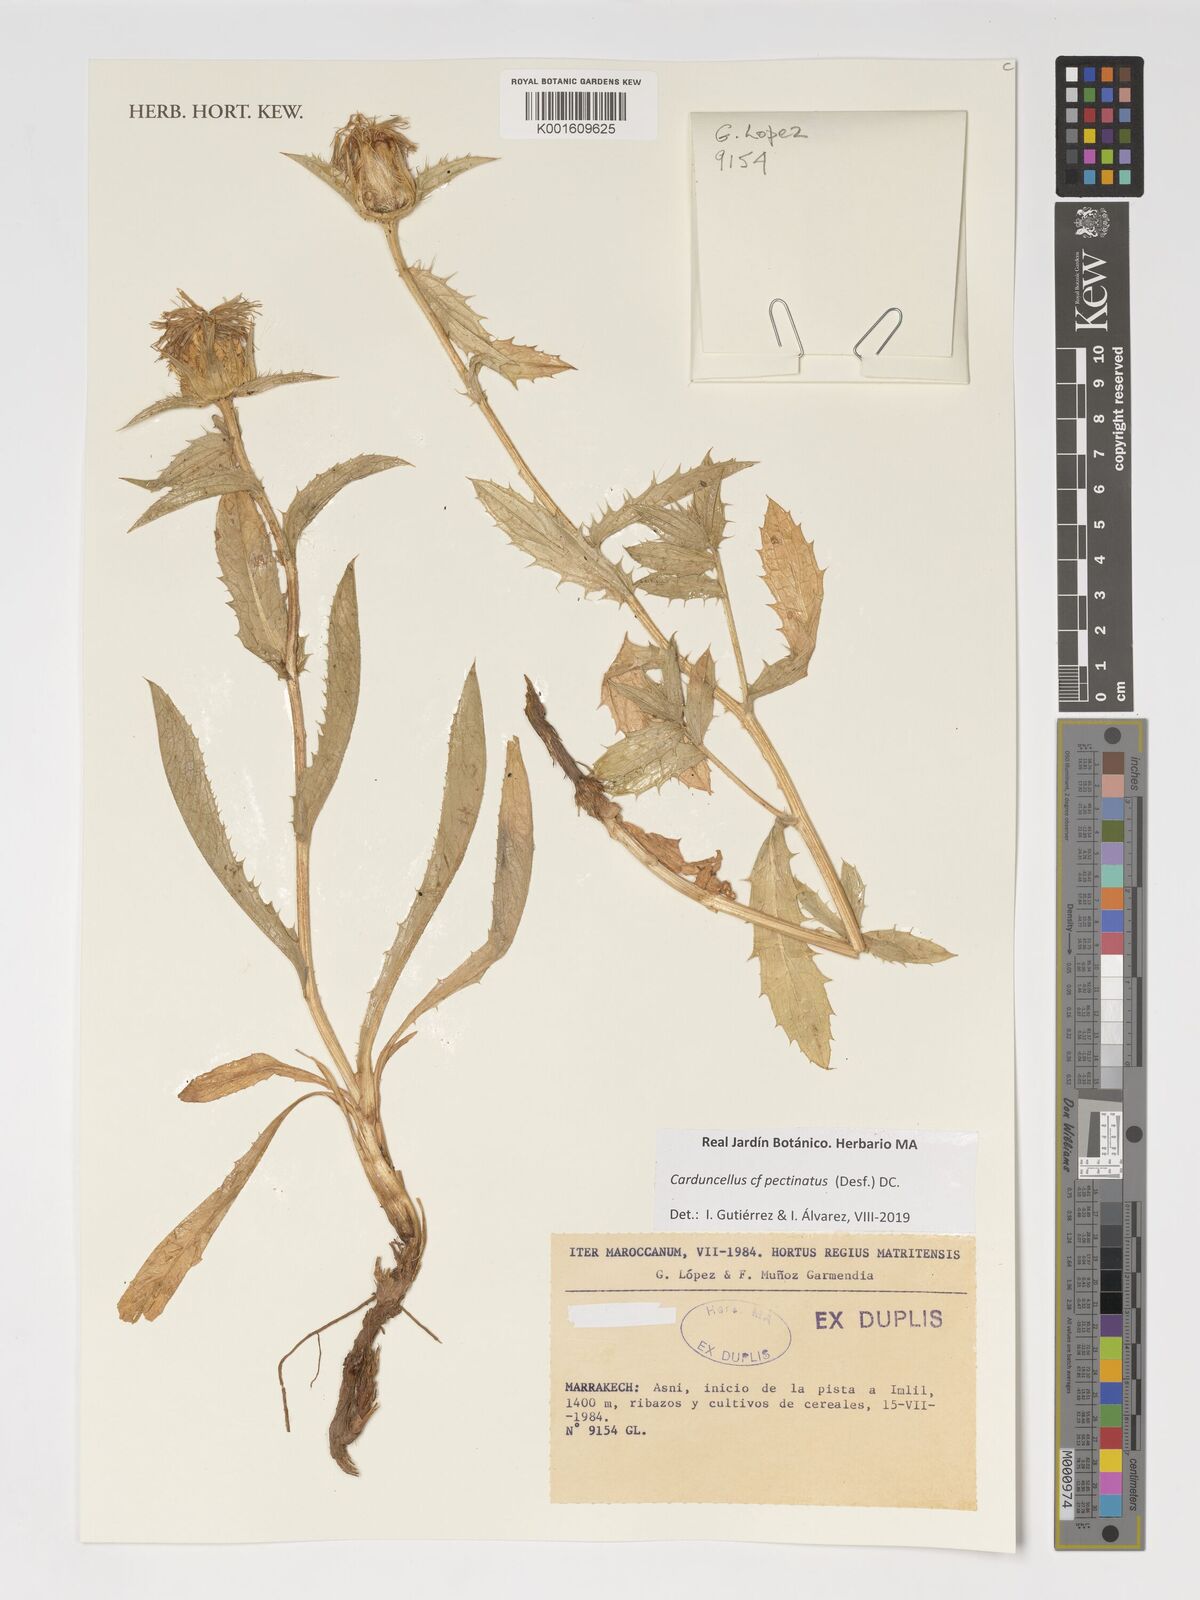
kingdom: Plantae
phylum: Tracheophyta
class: Magnoliopsida
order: Asterales
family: Asteraceae
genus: Carduncellus
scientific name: Carduncellus pectinatus
